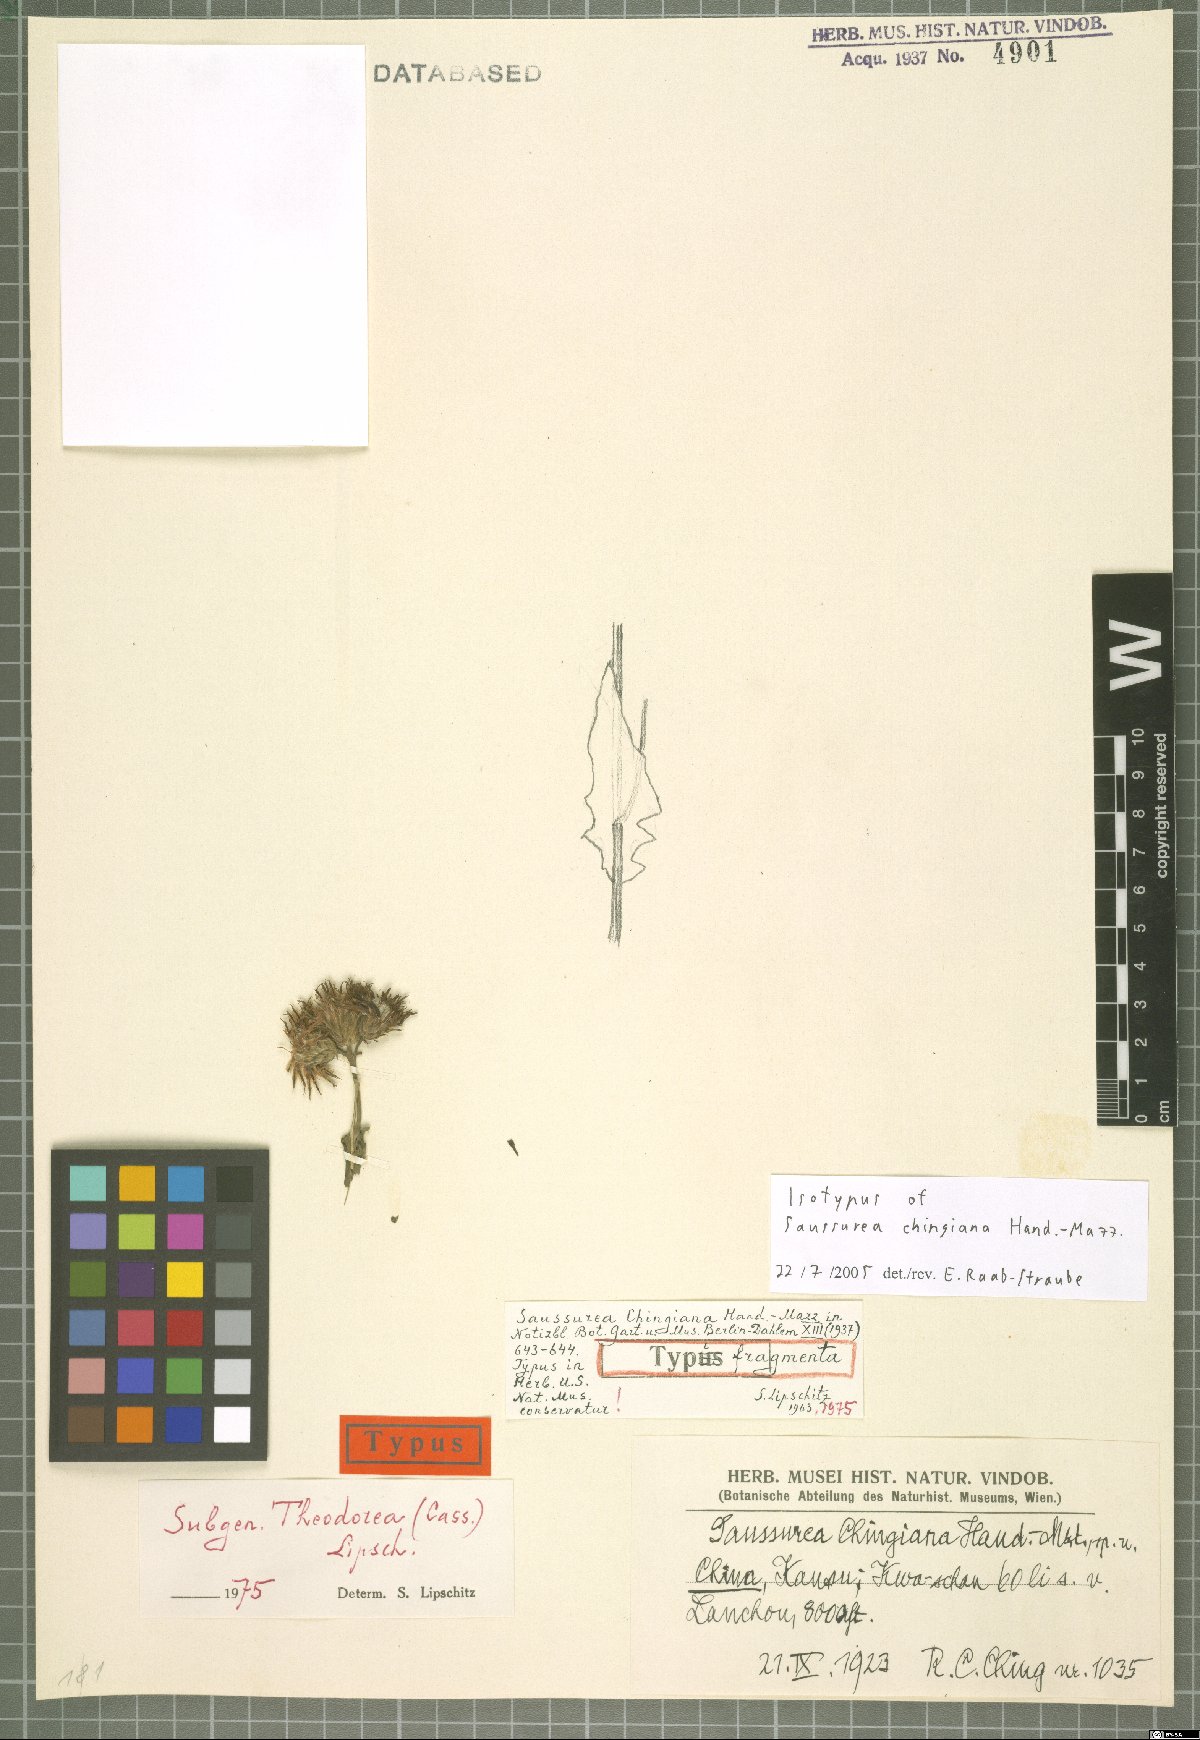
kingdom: Plantae
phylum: Tracheophyta
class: Magnoliopsida
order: Asterales
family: Asteraceae
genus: Saussurea
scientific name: Saussurea chingiana
